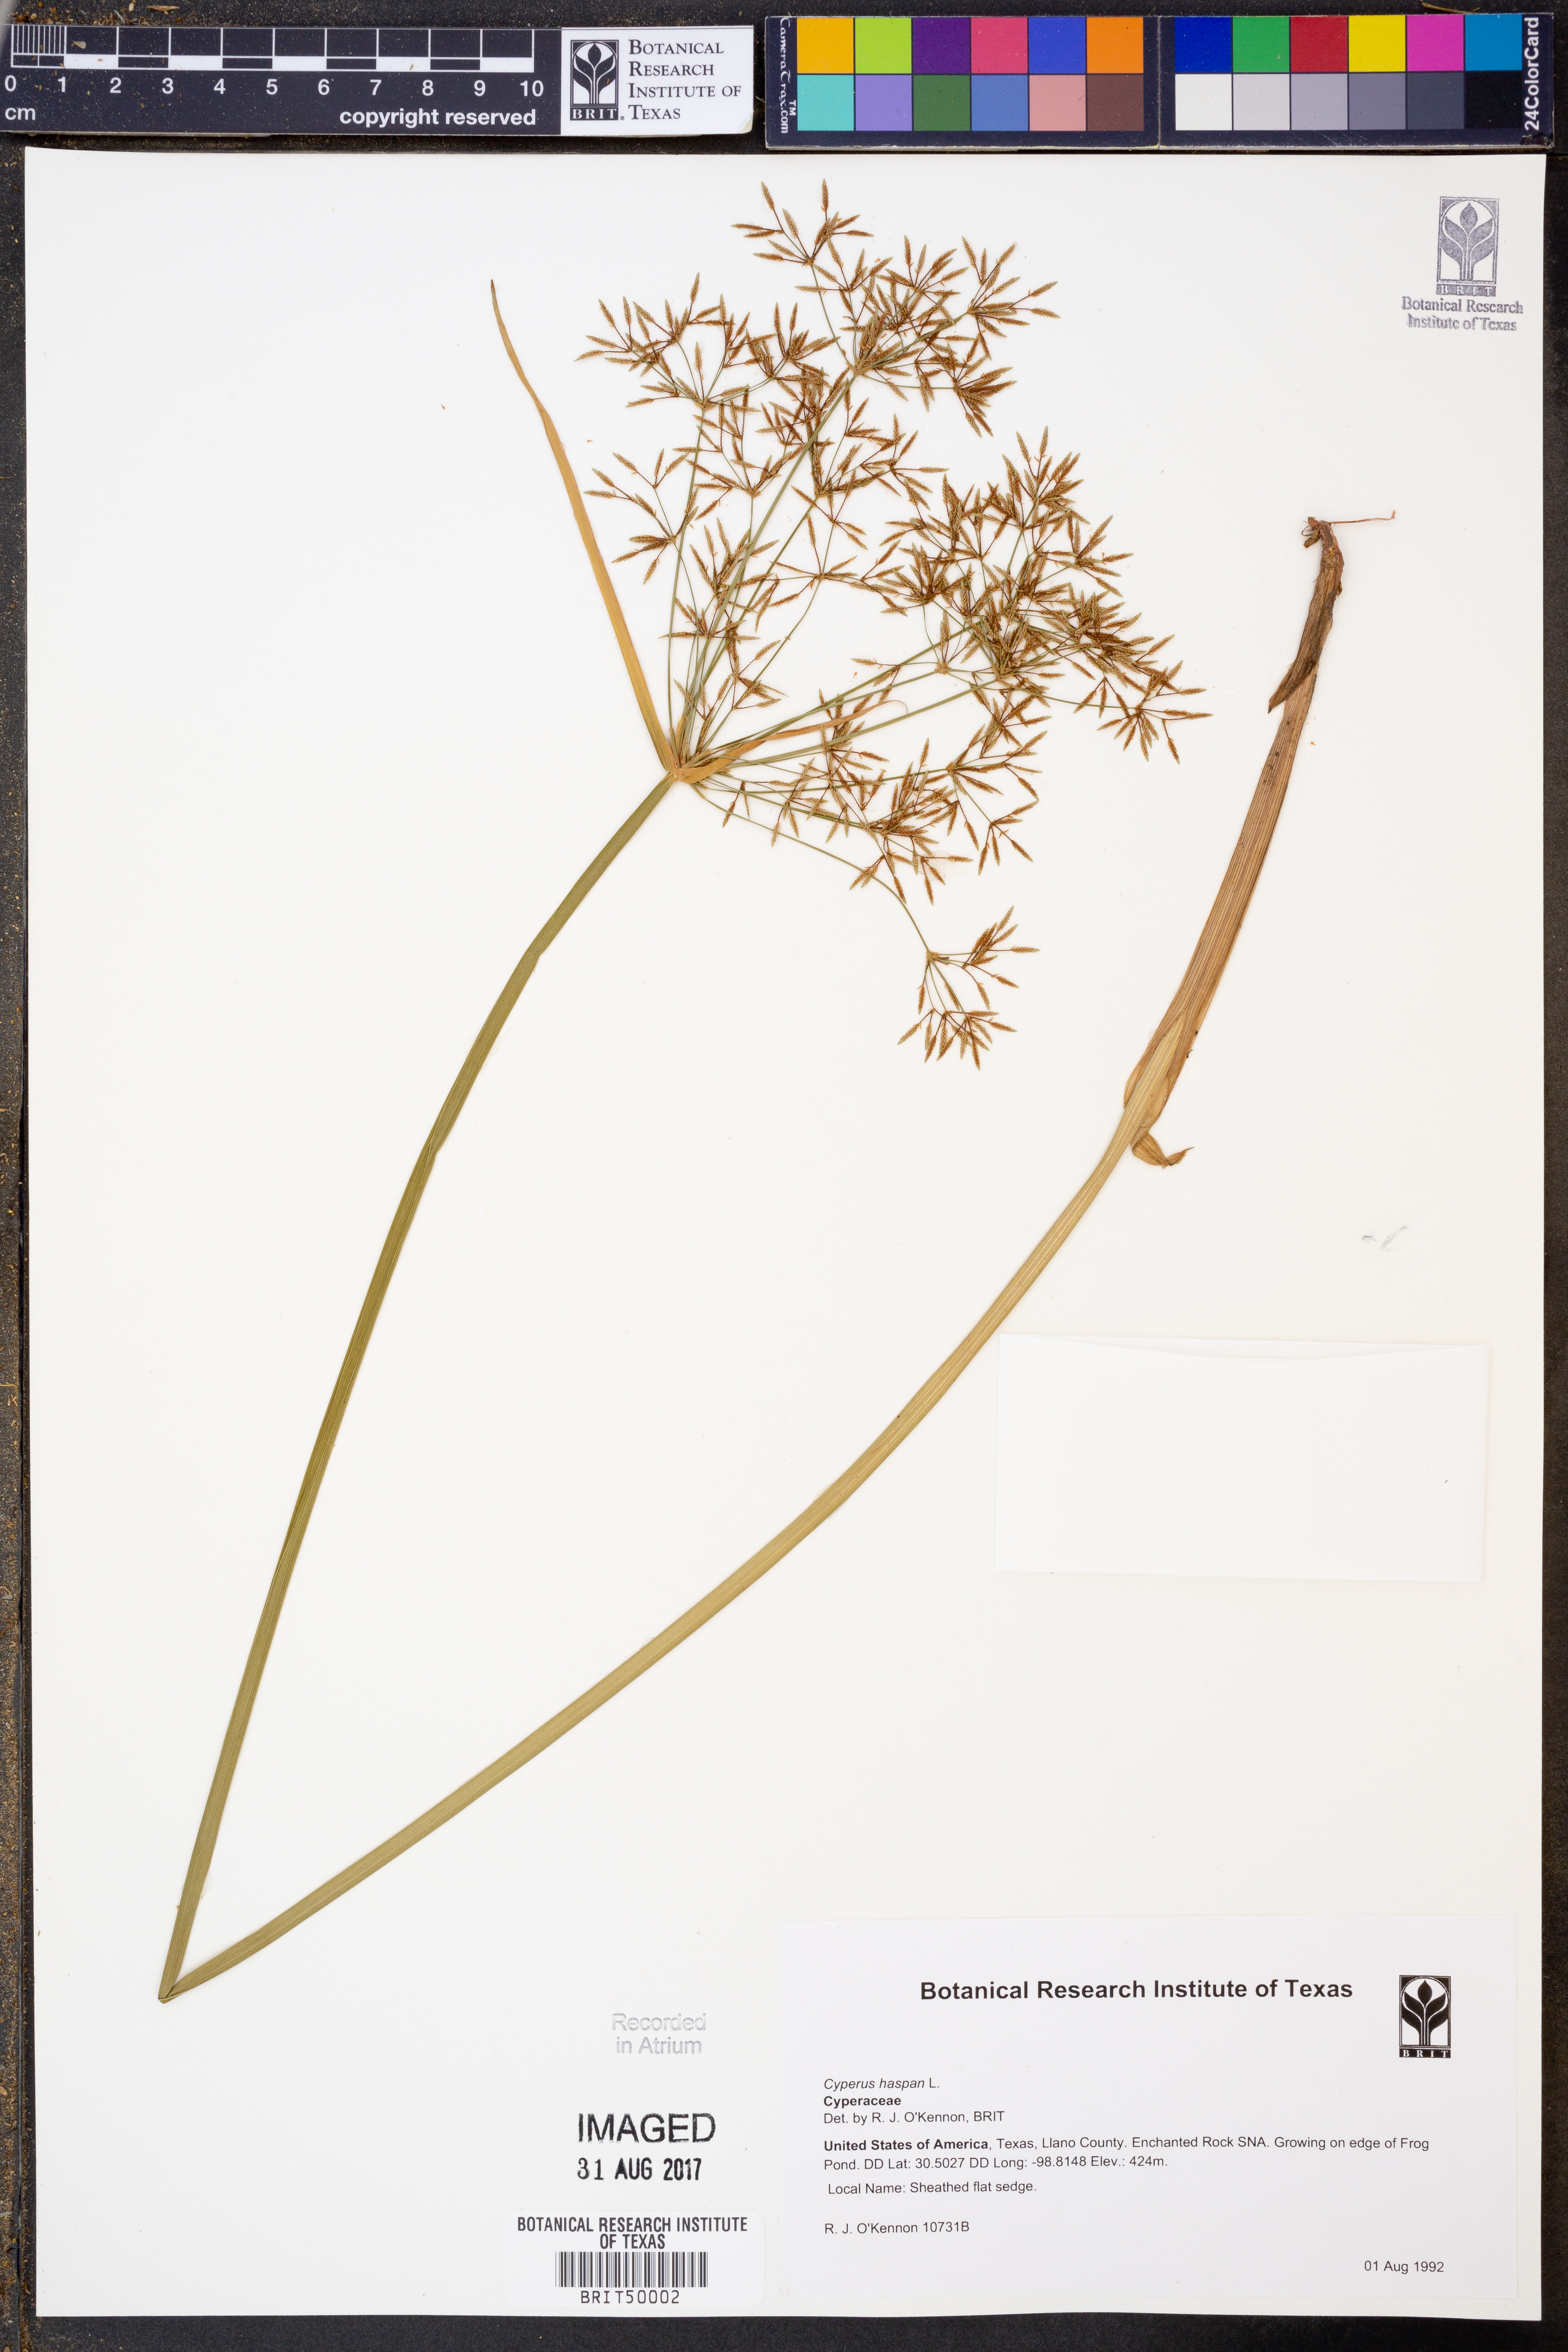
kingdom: Plantae
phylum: Tracheophyta
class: Liliopsida
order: Poales
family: Cyperaceae
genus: Cyperus
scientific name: Cyperus haspan
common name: Haspan flatsedge
